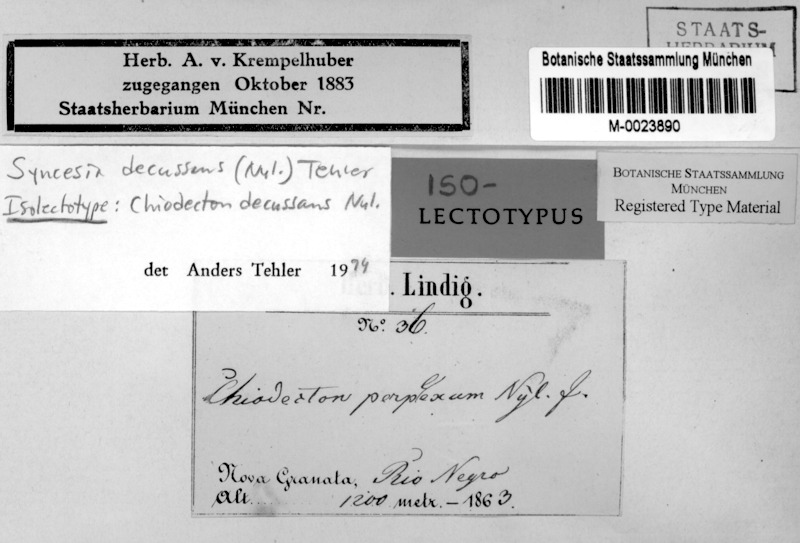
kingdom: Fungi
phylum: Ascomycota
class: Arthoniomycetes
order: Arthoniales
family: Roccellaceae
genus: Syncesia
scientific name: Syncesia decussans
